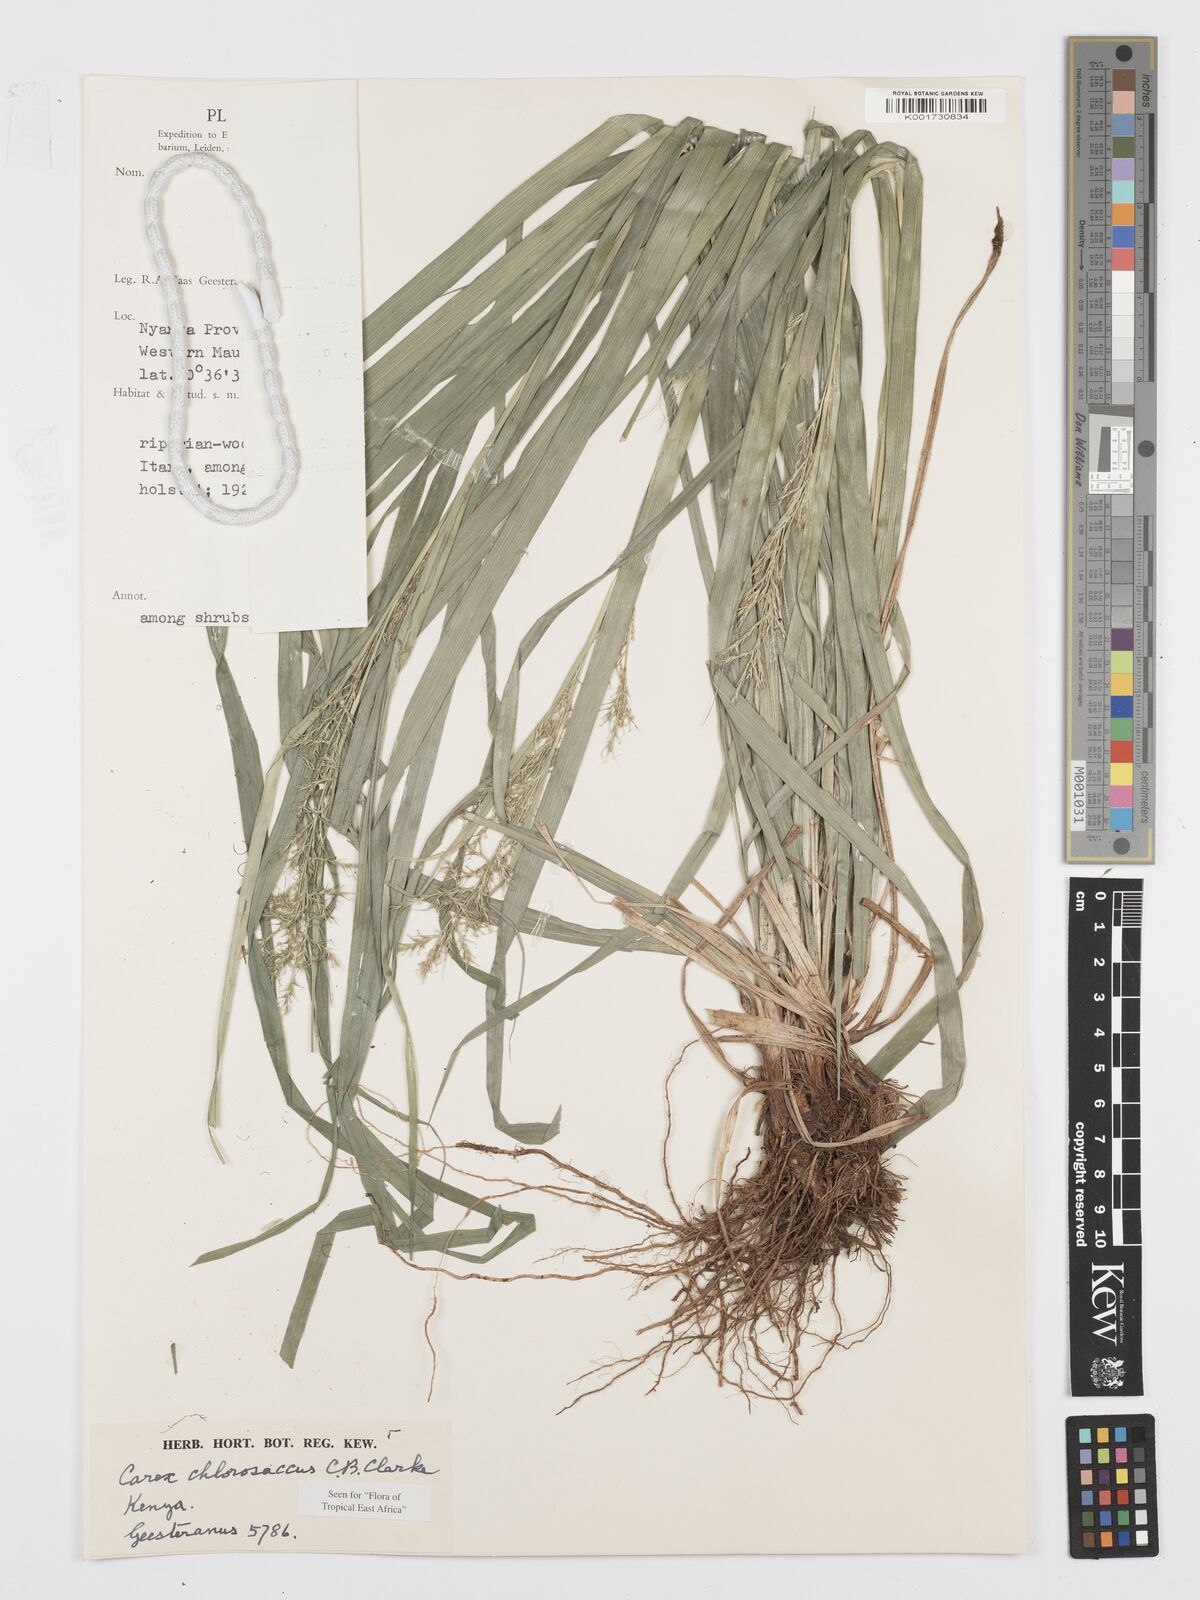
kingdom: Plantae
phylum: Tracheophyta
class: Liliopsida
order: Poales
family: Cyperaceae
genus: Carex
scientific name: Carex chlorosaccus
